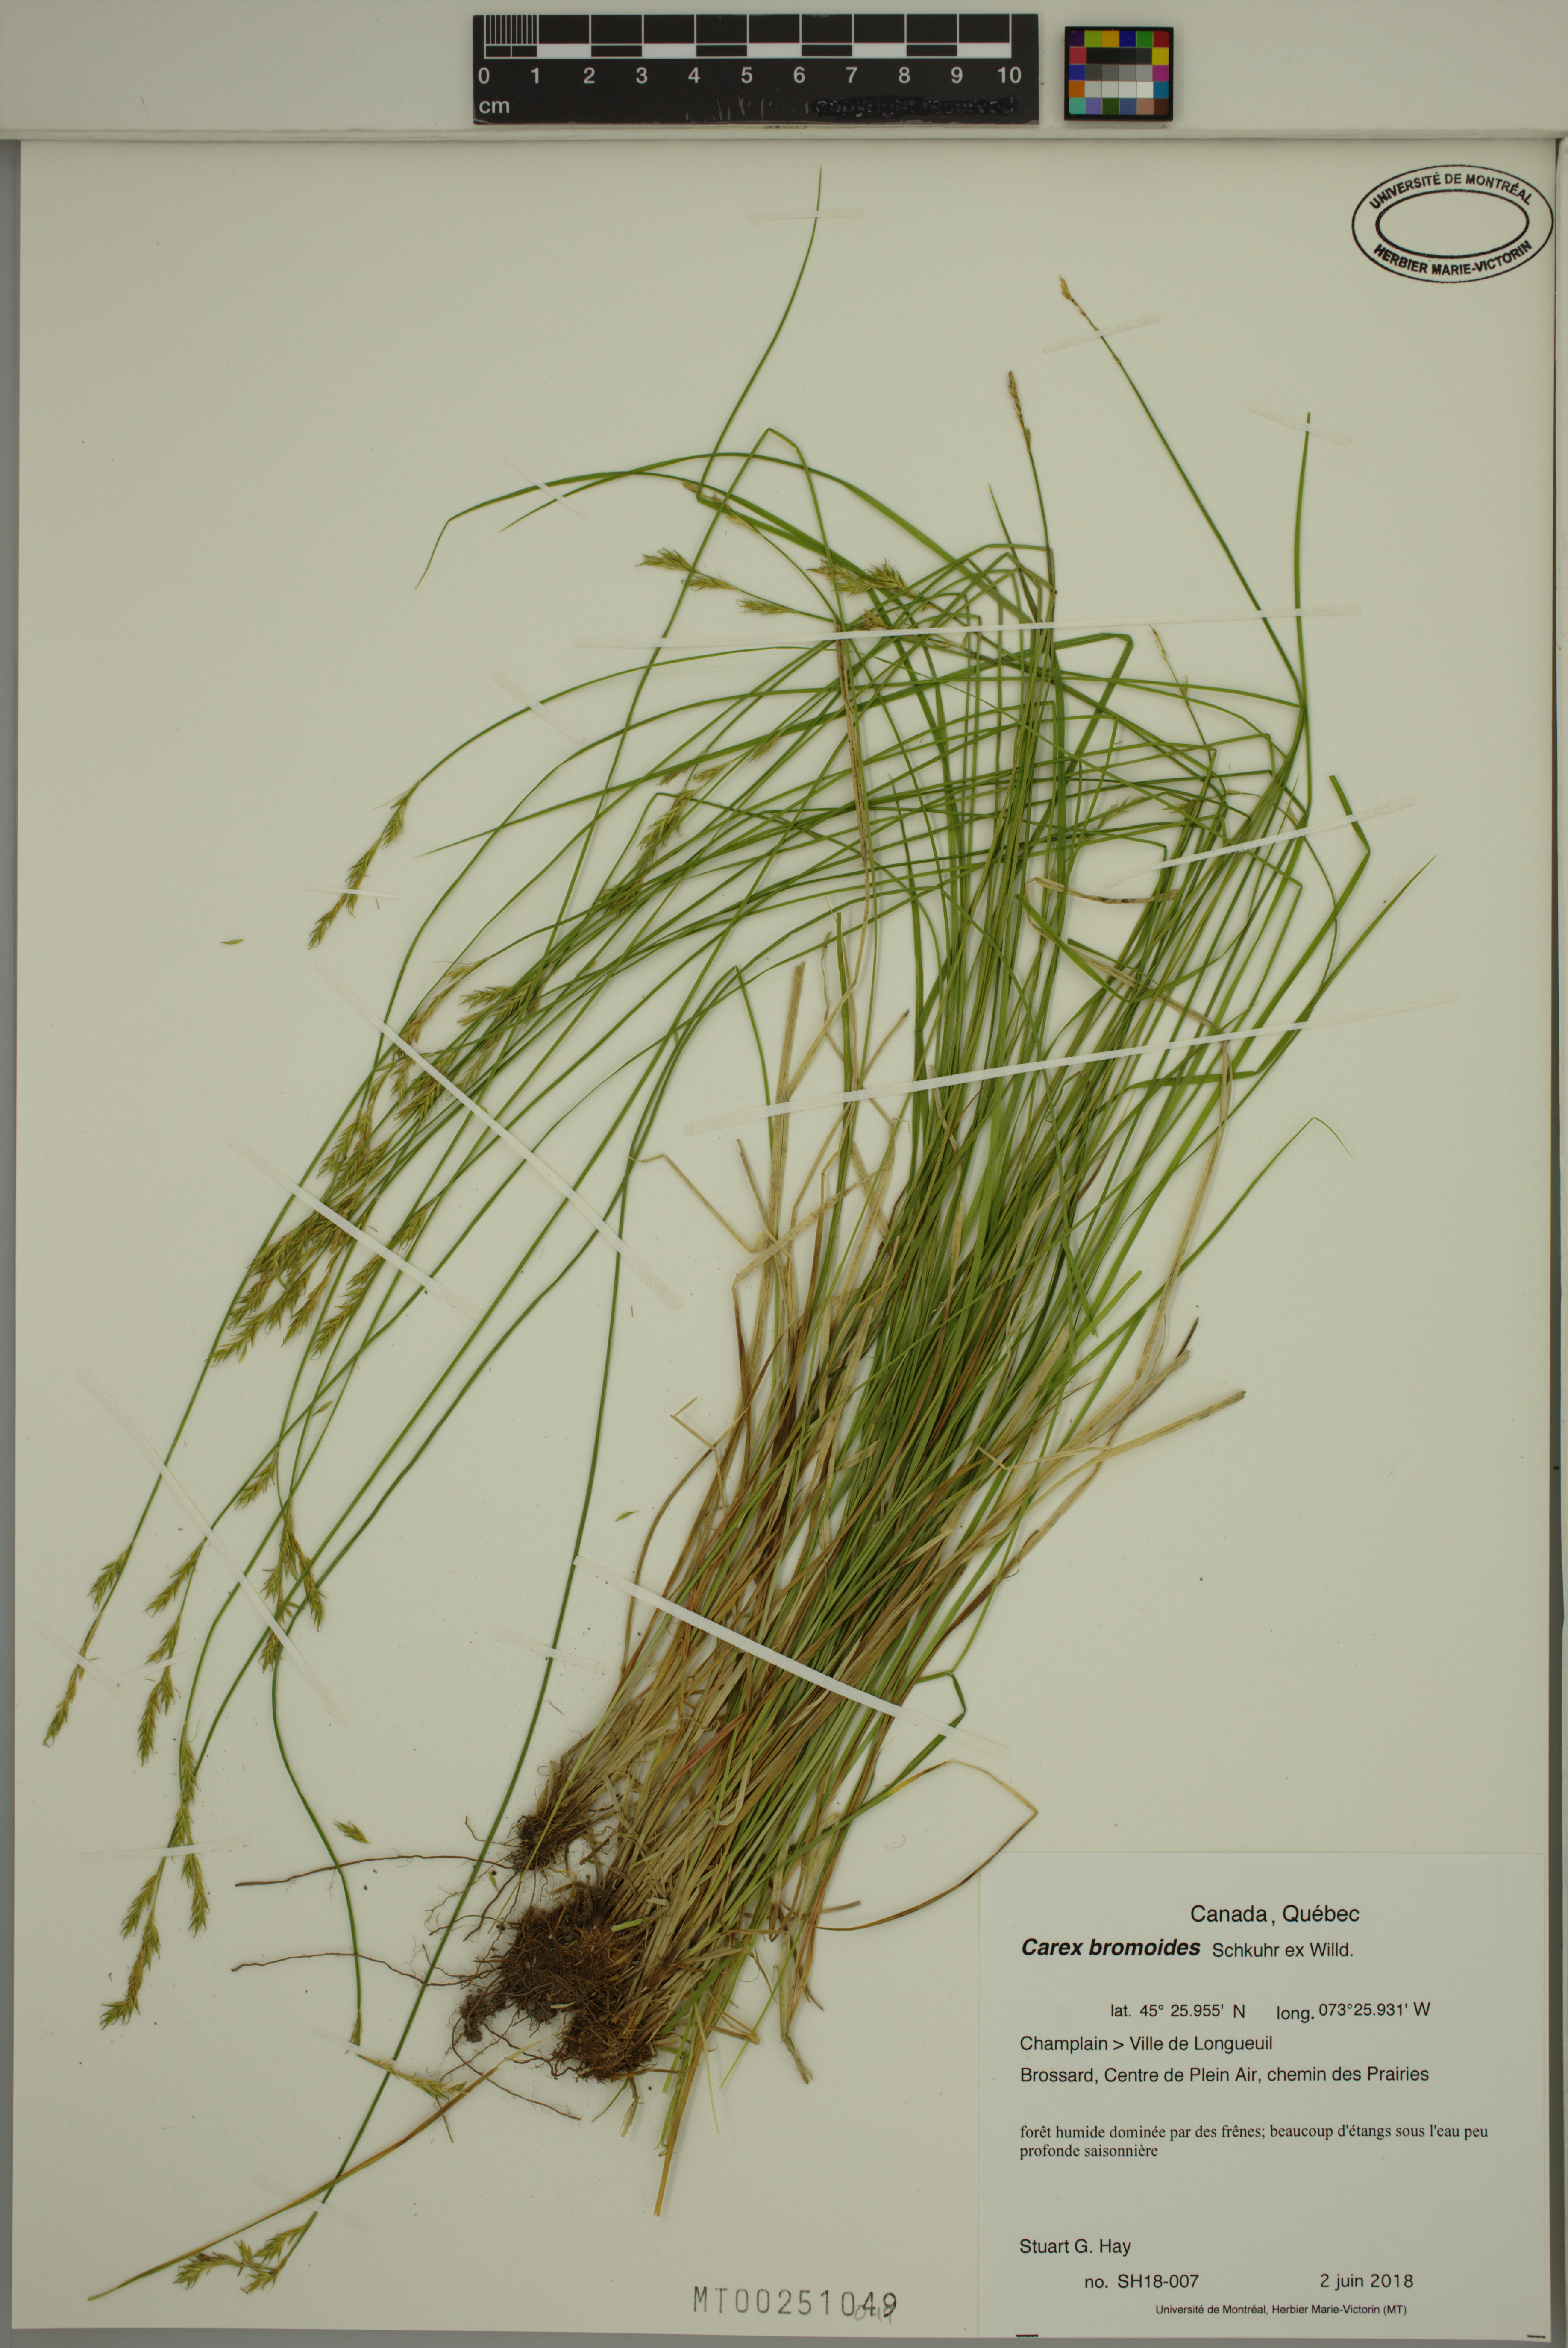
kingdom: Plantae
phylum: Tracheophyta
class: Liliopsida
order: Poales
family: Cyperaceae
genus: Carex
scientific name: Carex bromoides
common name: Brome hummock sedge
